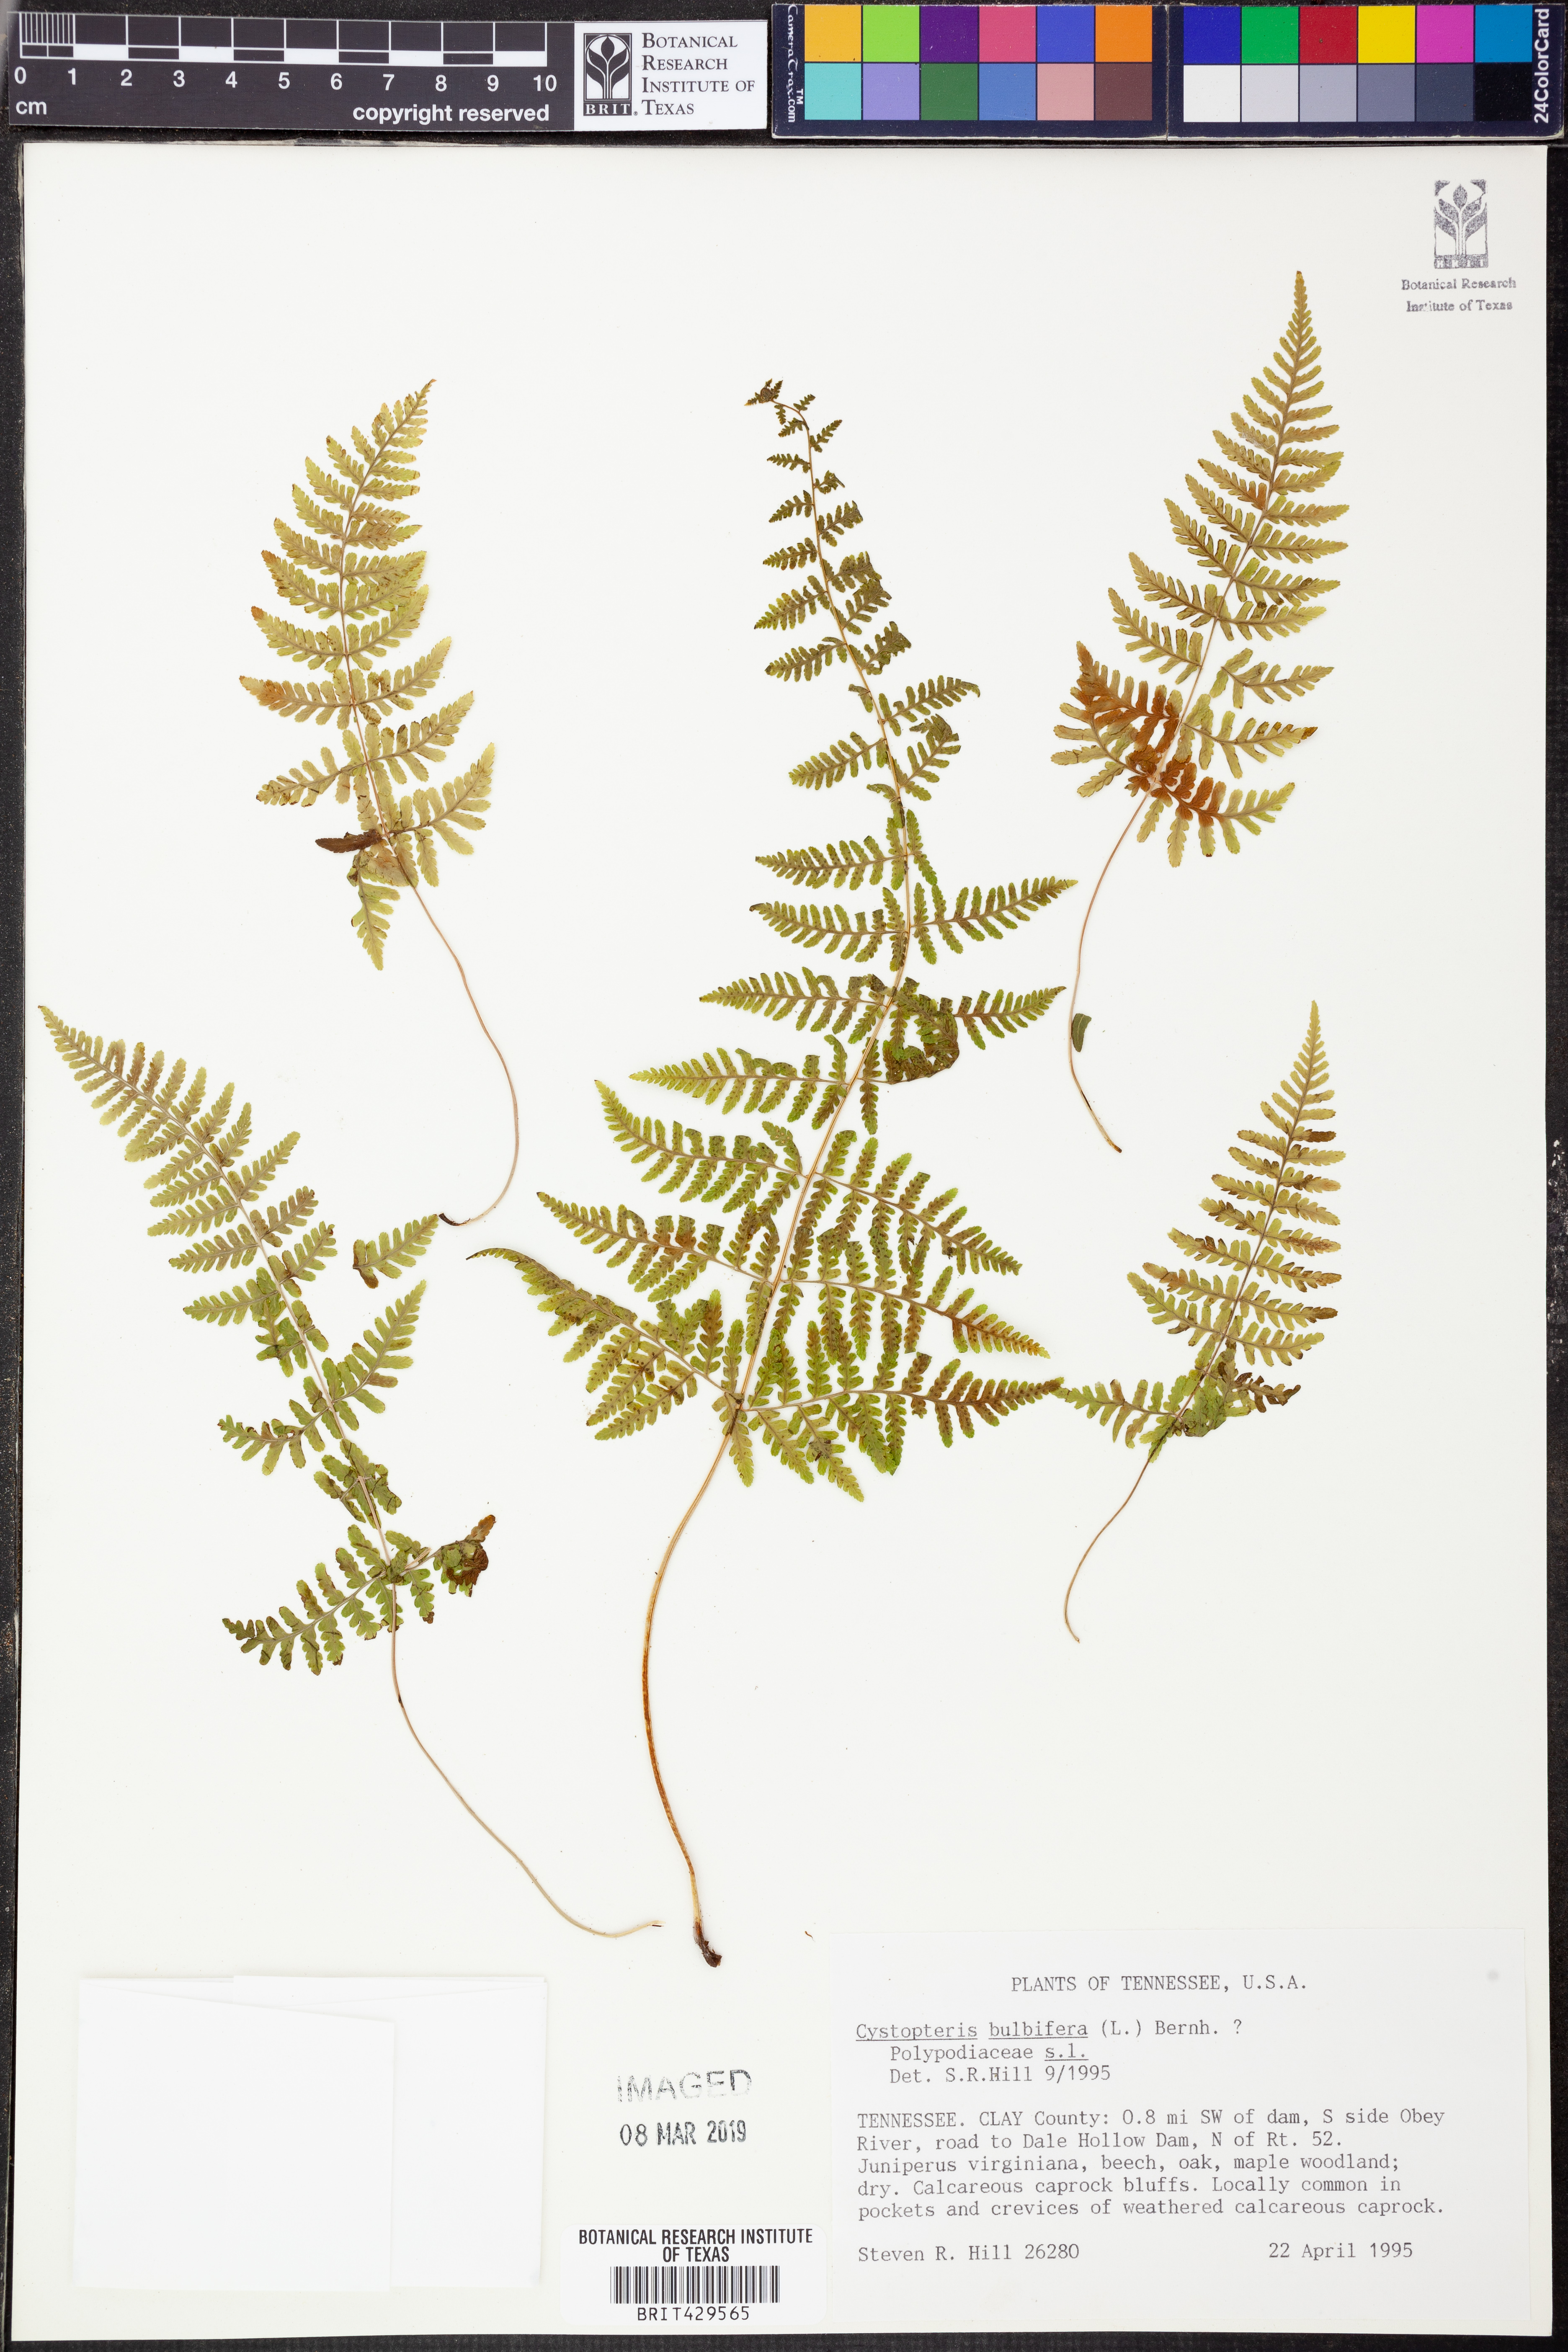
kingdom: Plantae
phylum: Tracheophyta
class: Polypodiopsida
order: Polypodiales
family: Cystopteridaceae
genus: Cystopteris
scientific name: Cystopteris bulbifera
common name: Bulblet bladder fern
